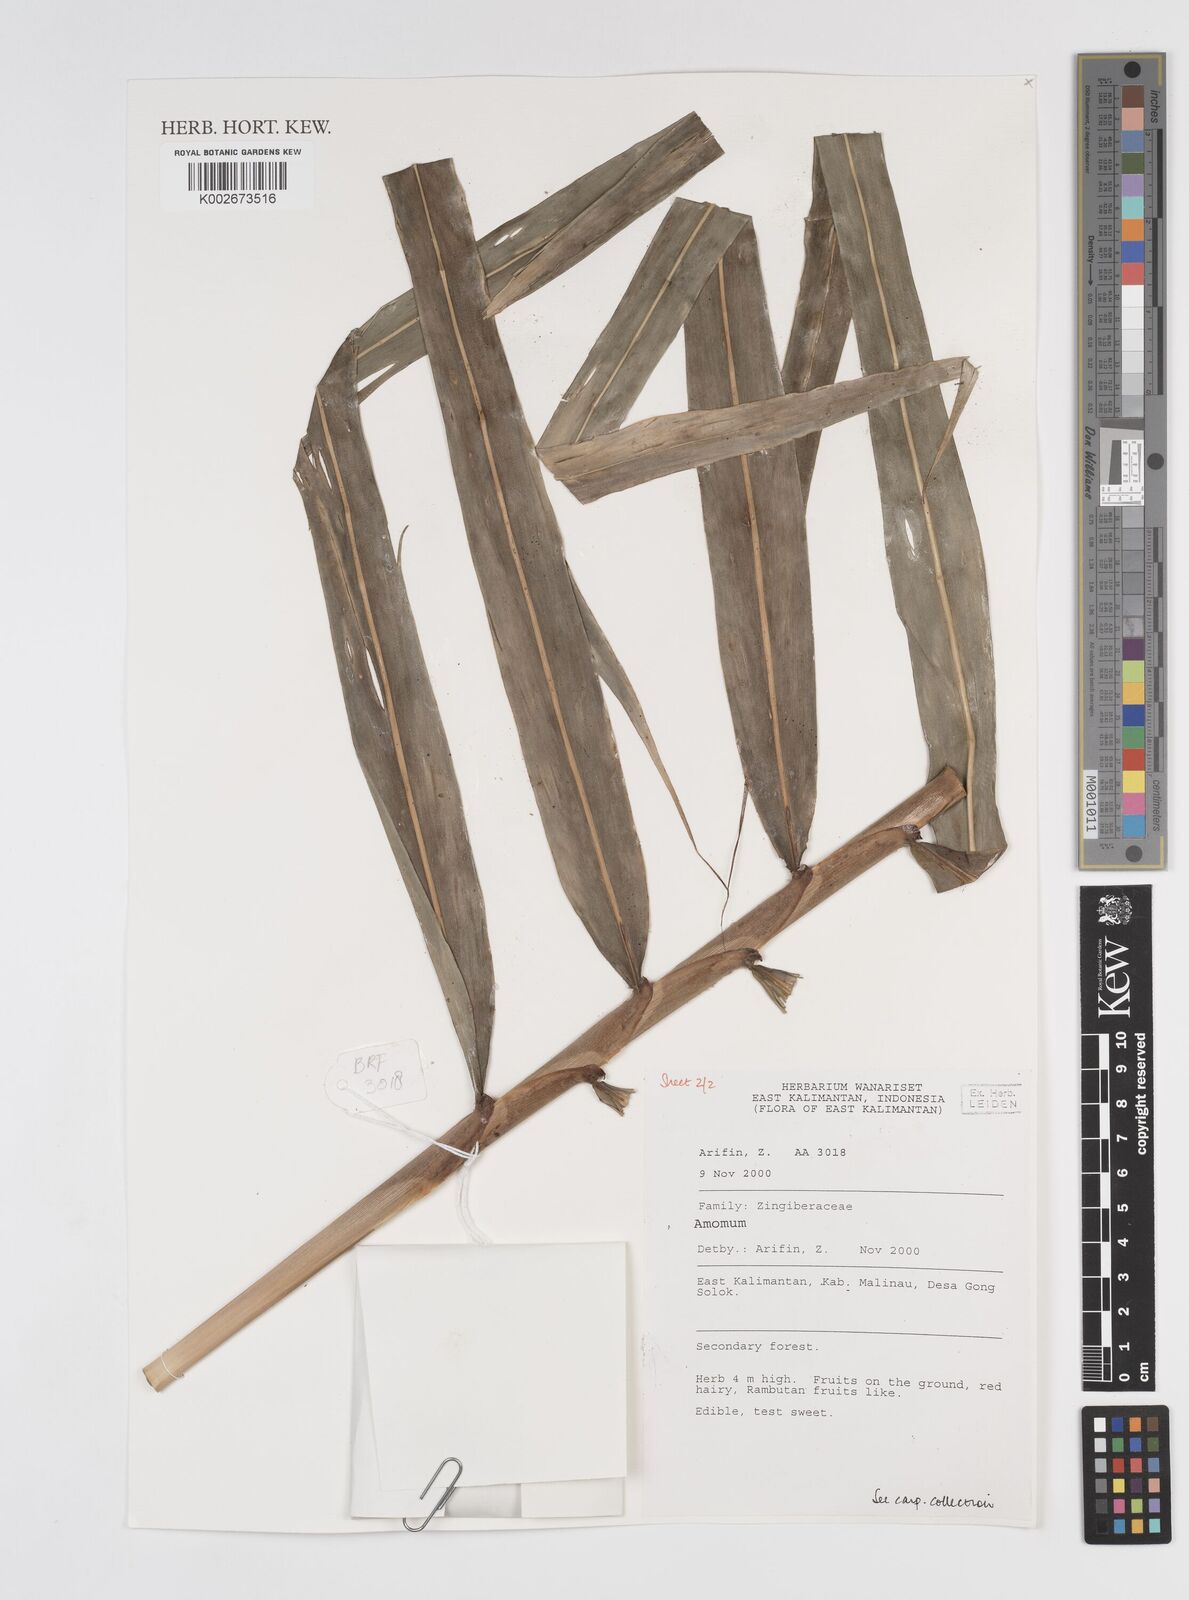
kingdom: Plantae
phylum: Tracheophyta
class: Liliopsida
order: Zingiberales
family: Zingiberaceae
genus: Amomum
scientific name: Amomum
